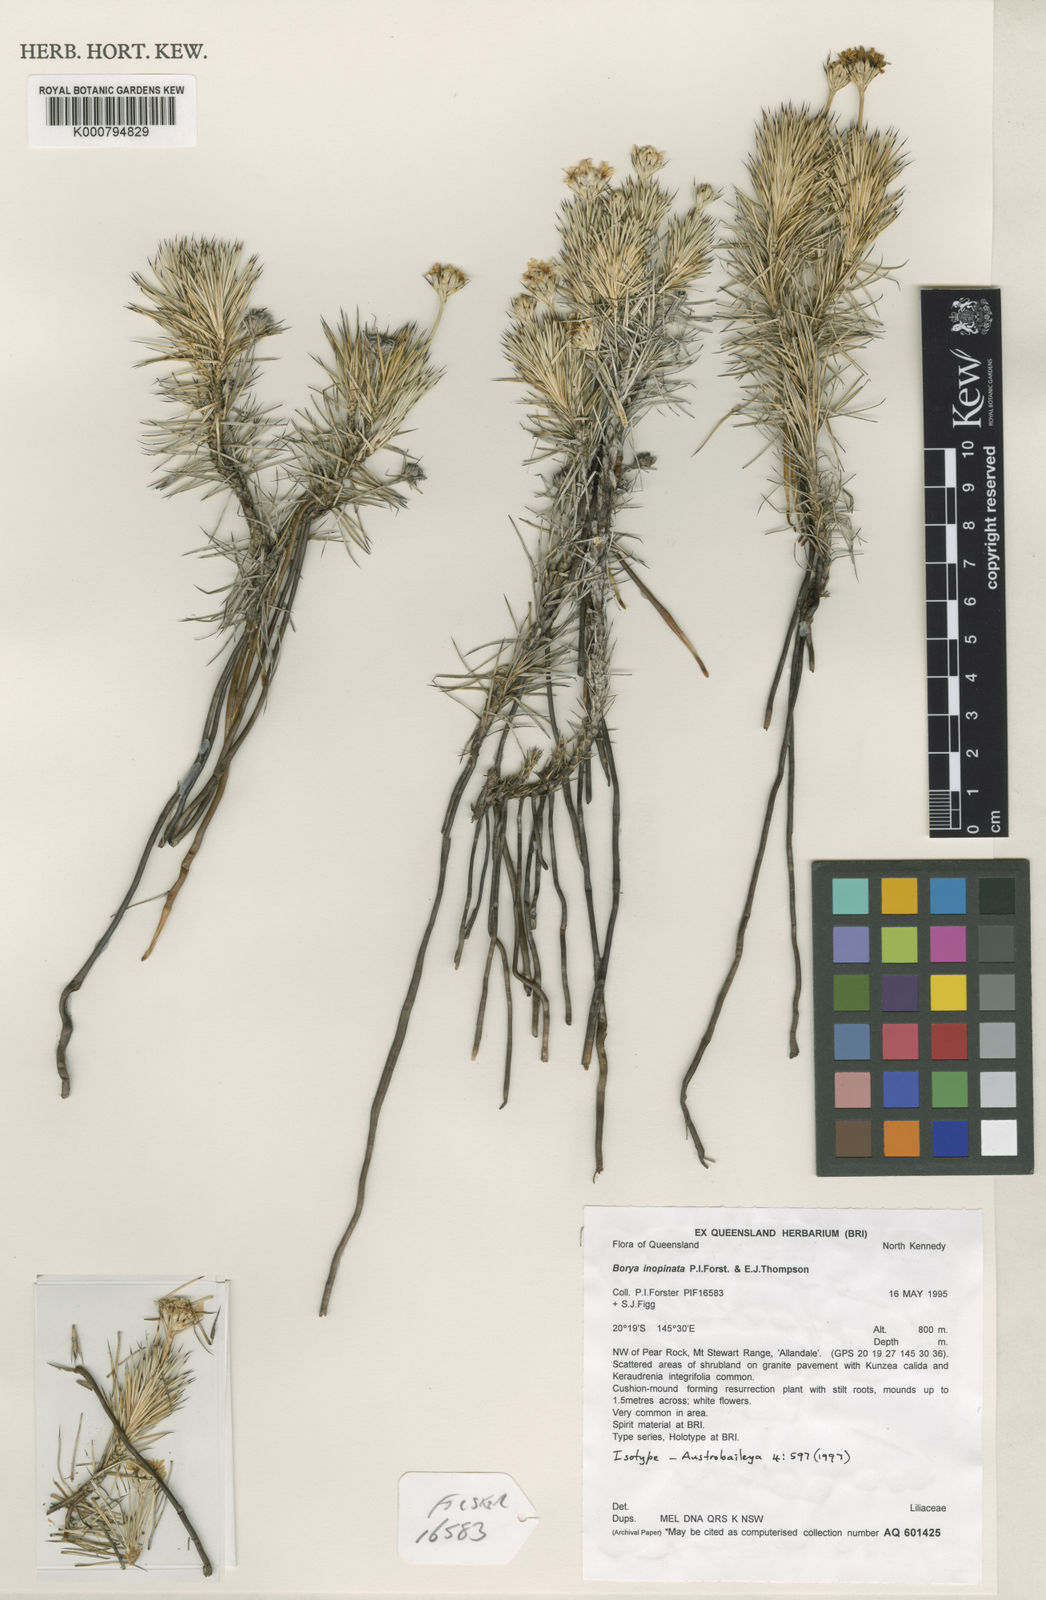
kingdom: Plantae
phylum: Tracheophyta
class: Liliopsida
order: Asparagales
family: Boryaceae
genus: Borya
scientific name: Borya inopinata
